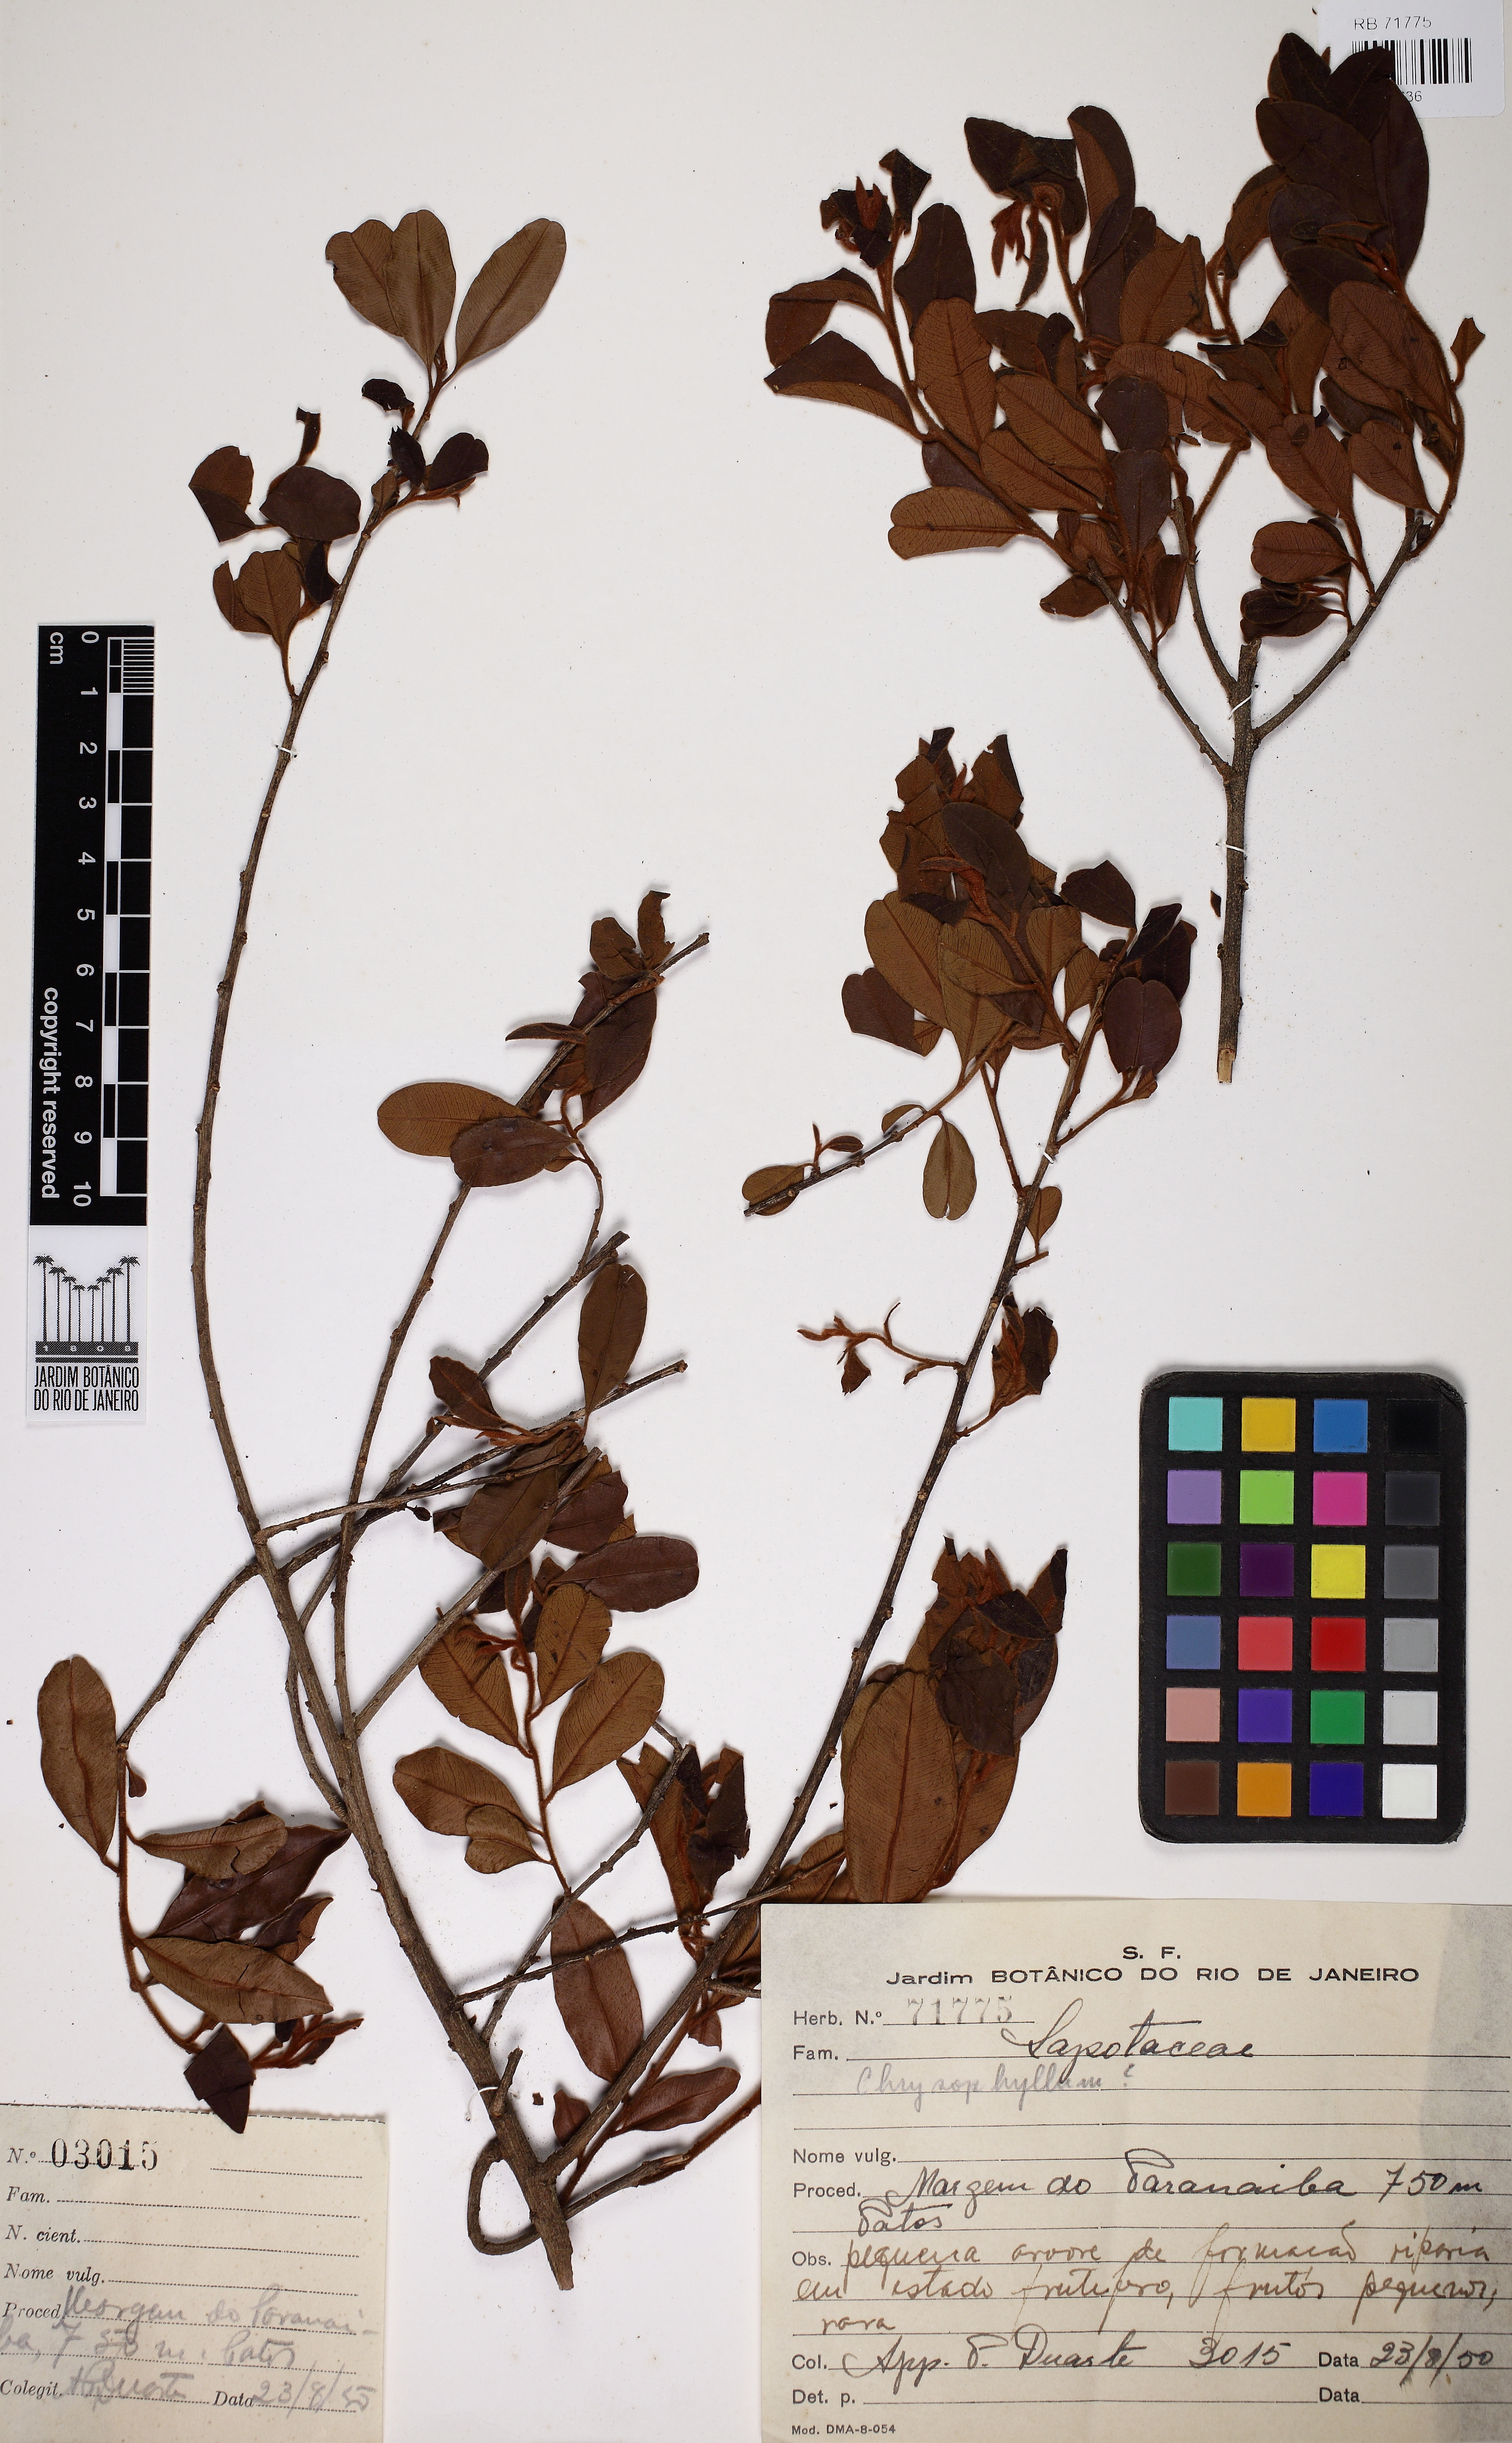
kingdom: Plantae
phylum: Tracheophyta
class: Magnoliopsida
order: Ericales
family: Sapotaceae
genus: Chrysophyllum
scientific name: Chrysophyllum
